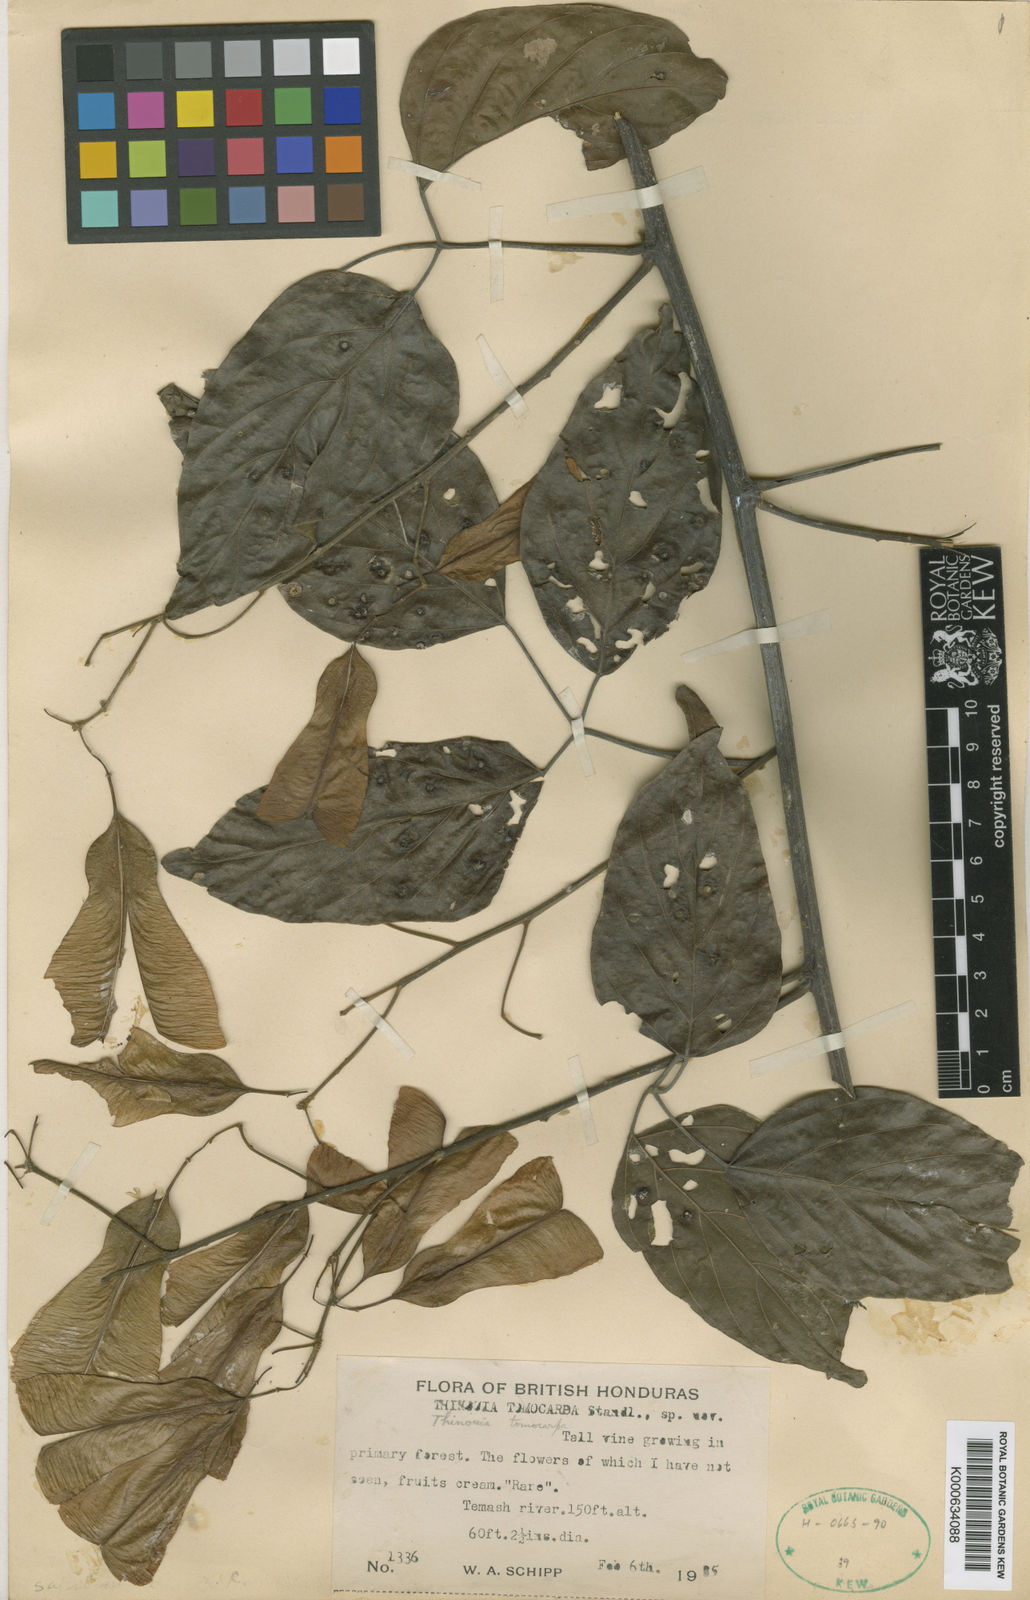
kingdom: Plantae
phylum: Tracheophyta
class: Magnoliopsida
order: Sapindales
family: Sapindaceae
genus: Thinouia
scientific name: Thinouia myriantha
